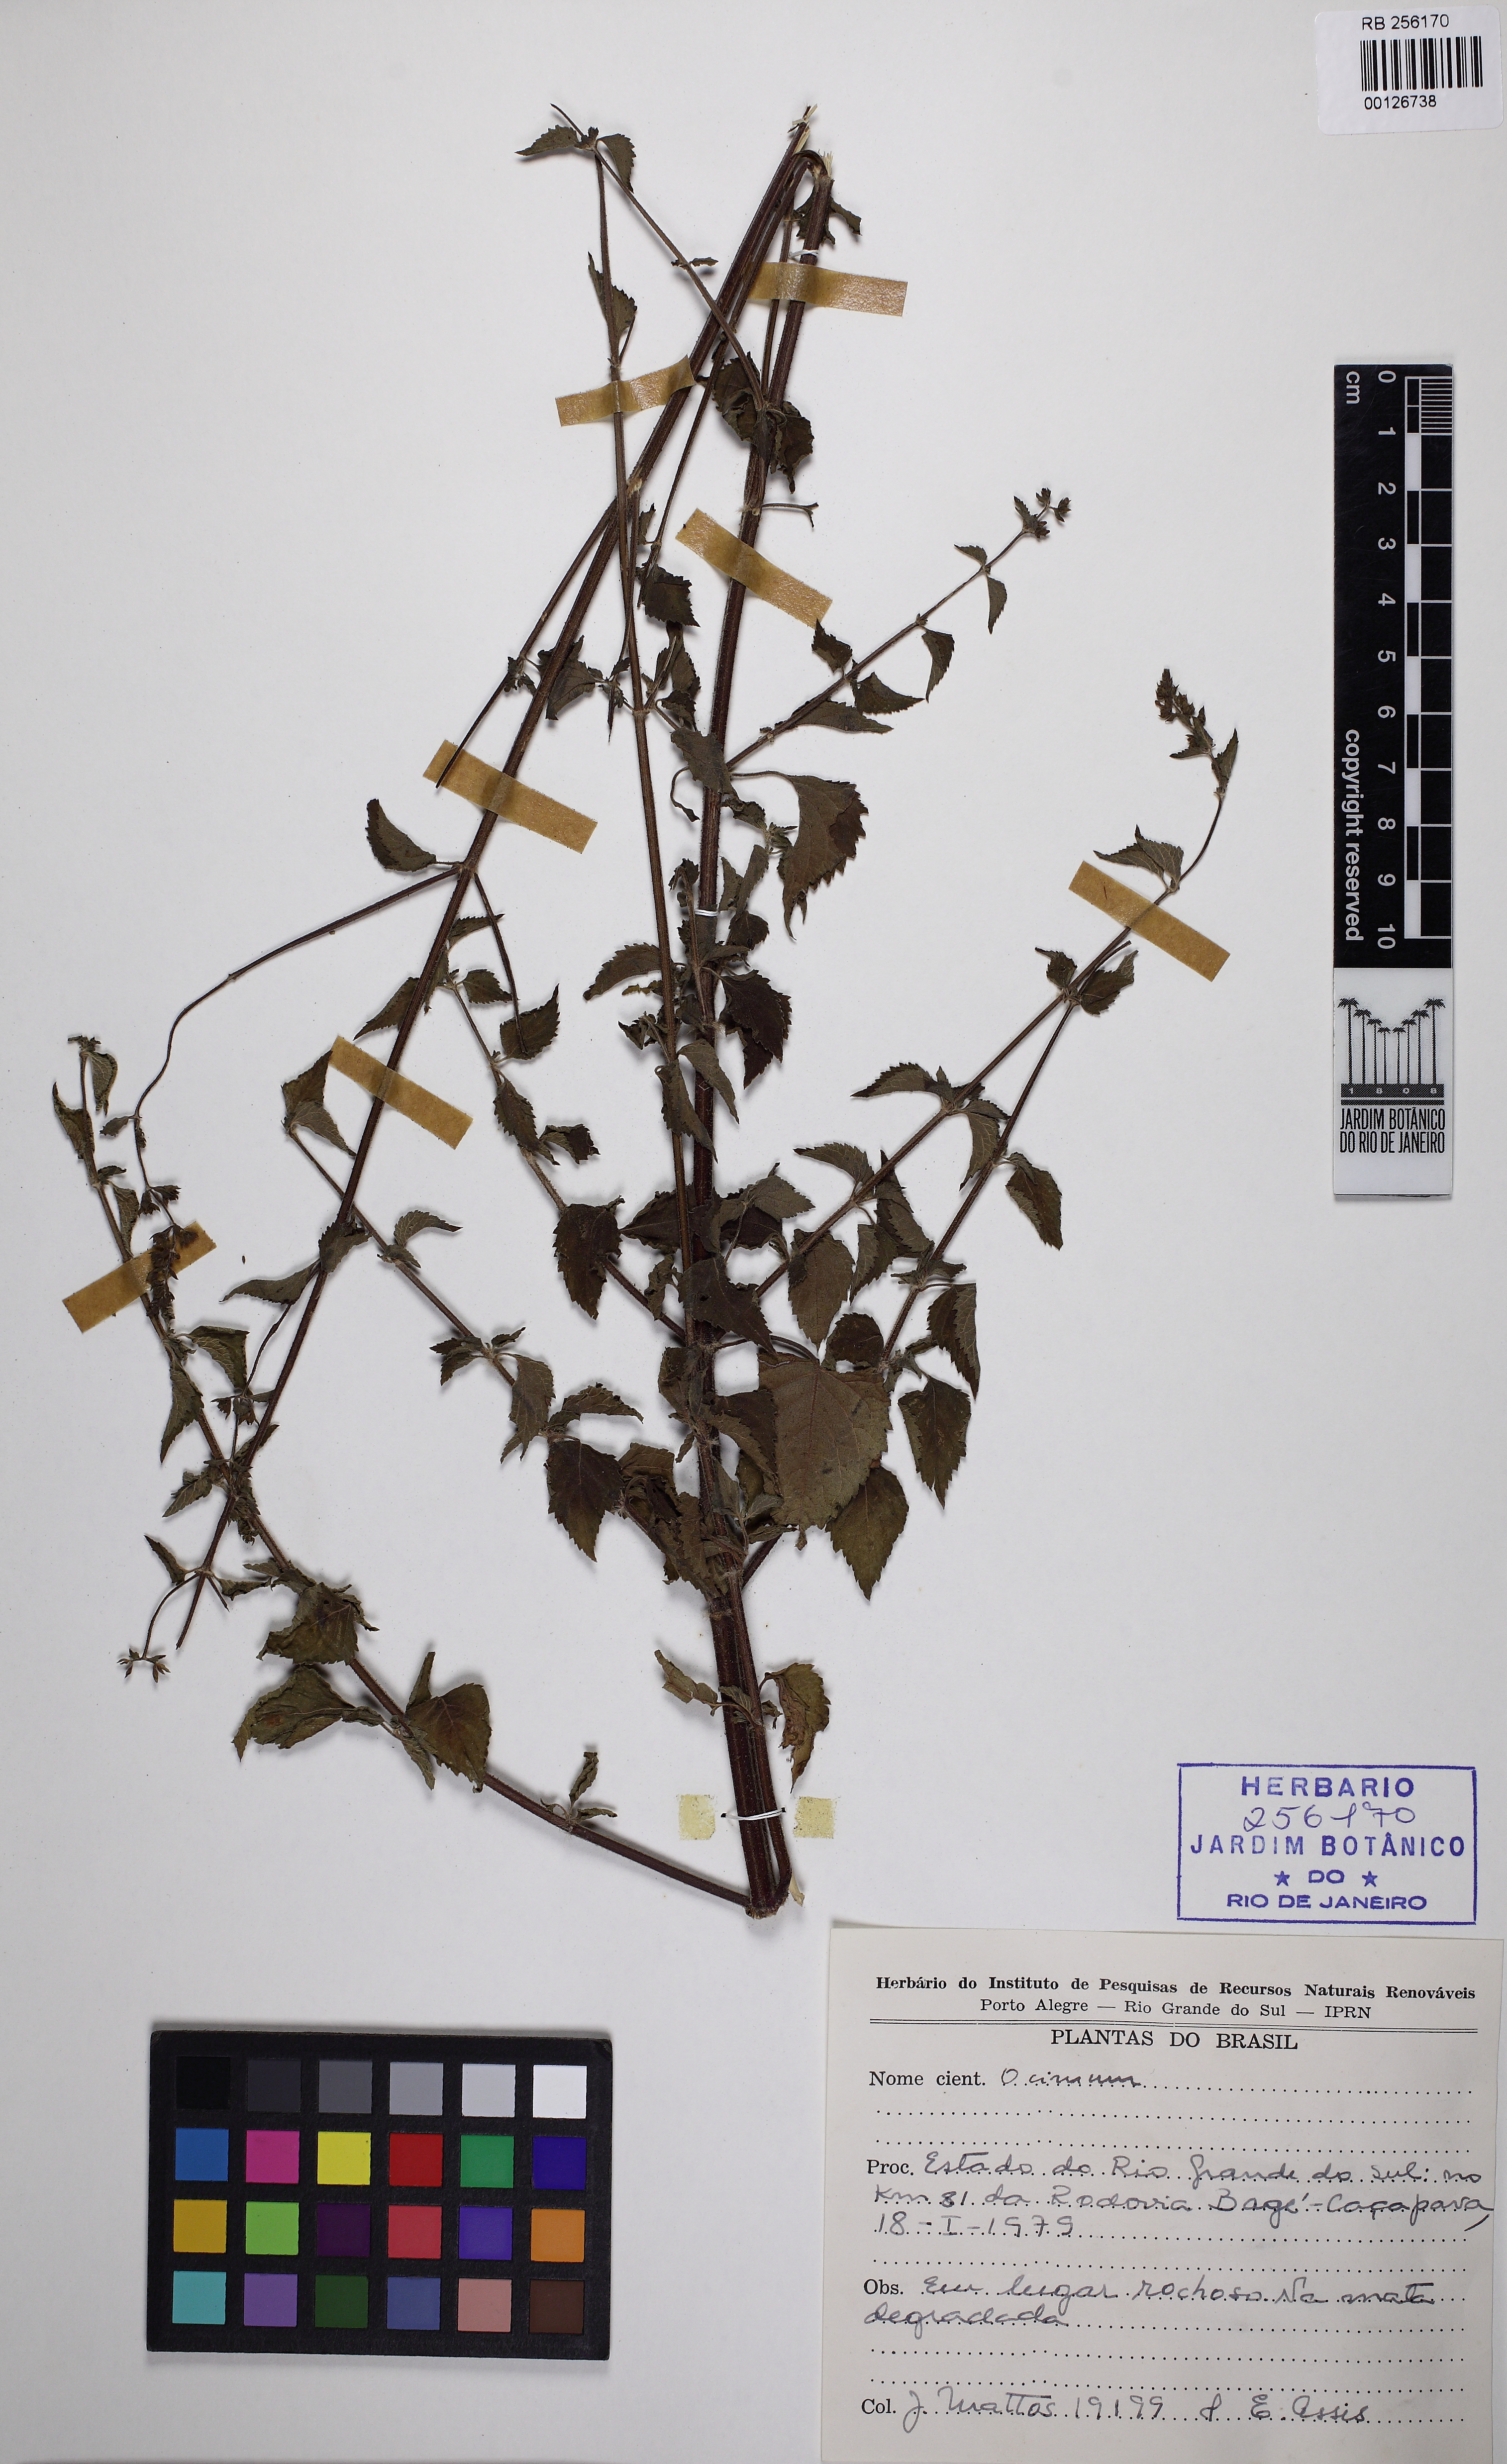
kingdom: Plantae
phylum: Tracheophyta
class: Magnoliopsida
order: Lamiales
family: Lamiaceae
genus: Ocimum
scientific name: Ocimum
